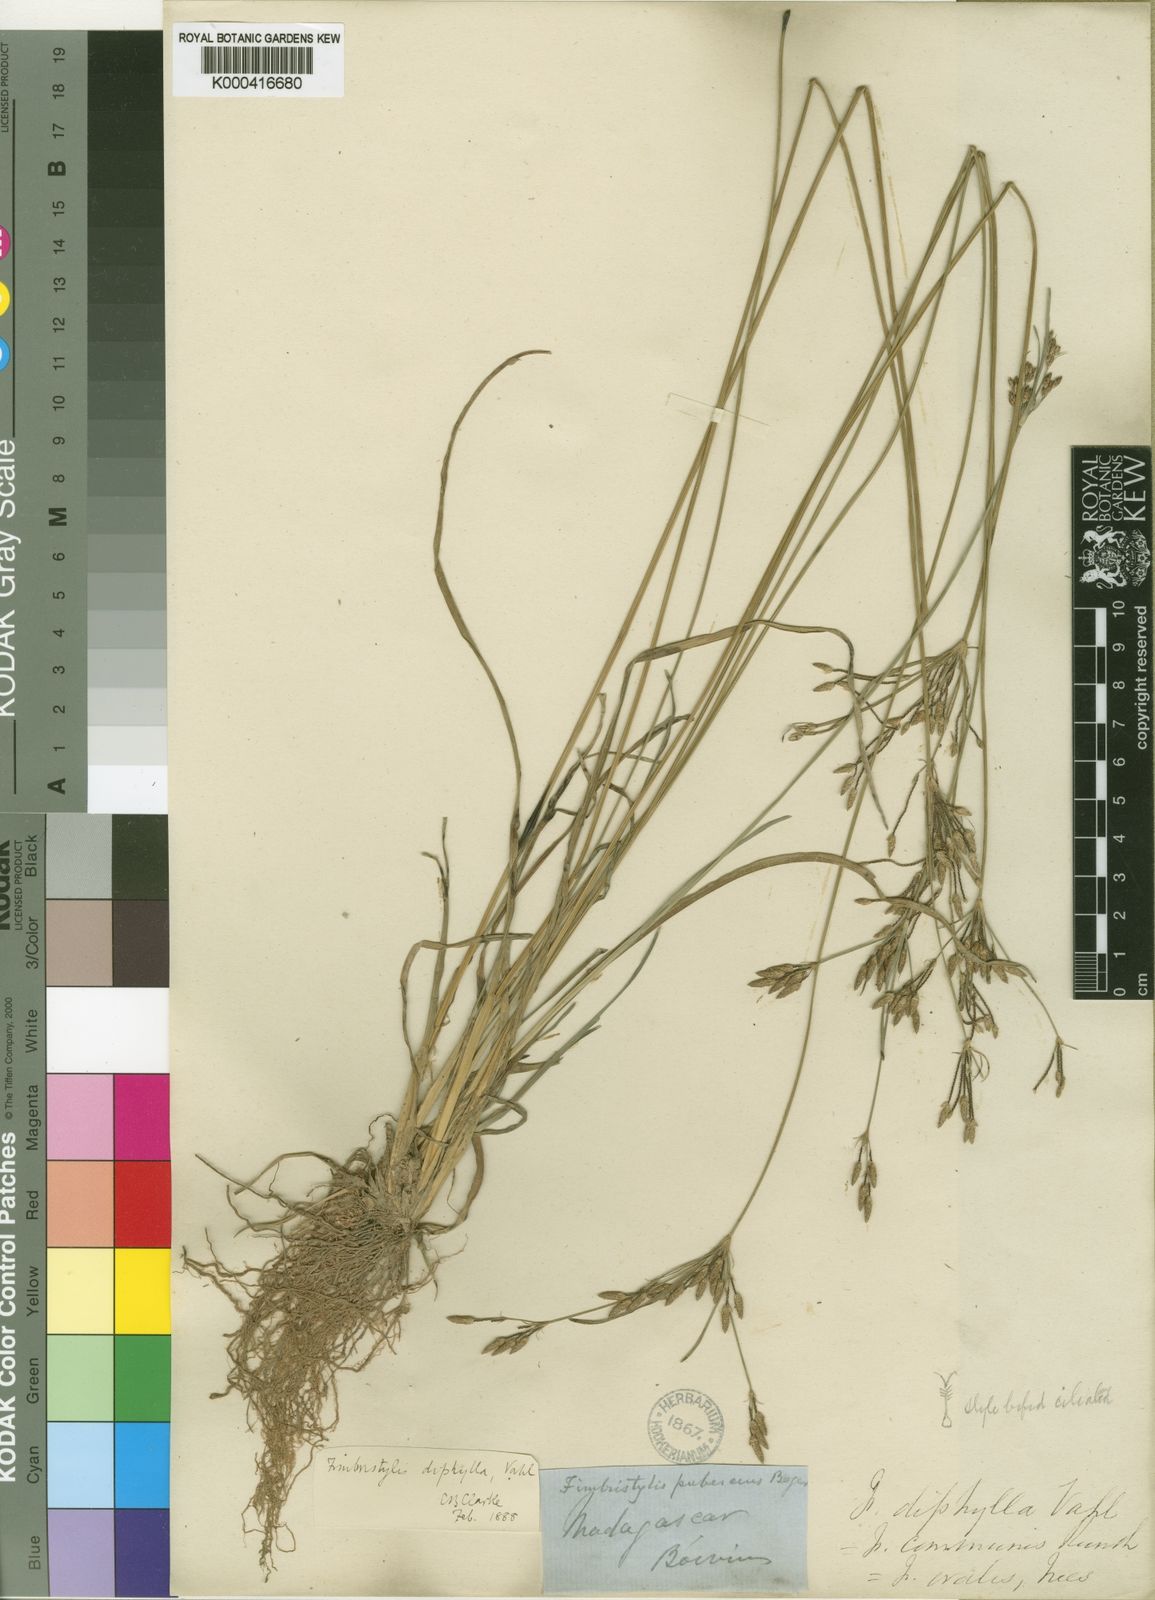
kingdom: Plantae
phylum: Tracheophyta
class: Liliopsida
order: Poales
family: Cyperaceae
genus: Fimbristylis
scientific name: Fimbristylis dichotoma
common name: Forked fimbry
